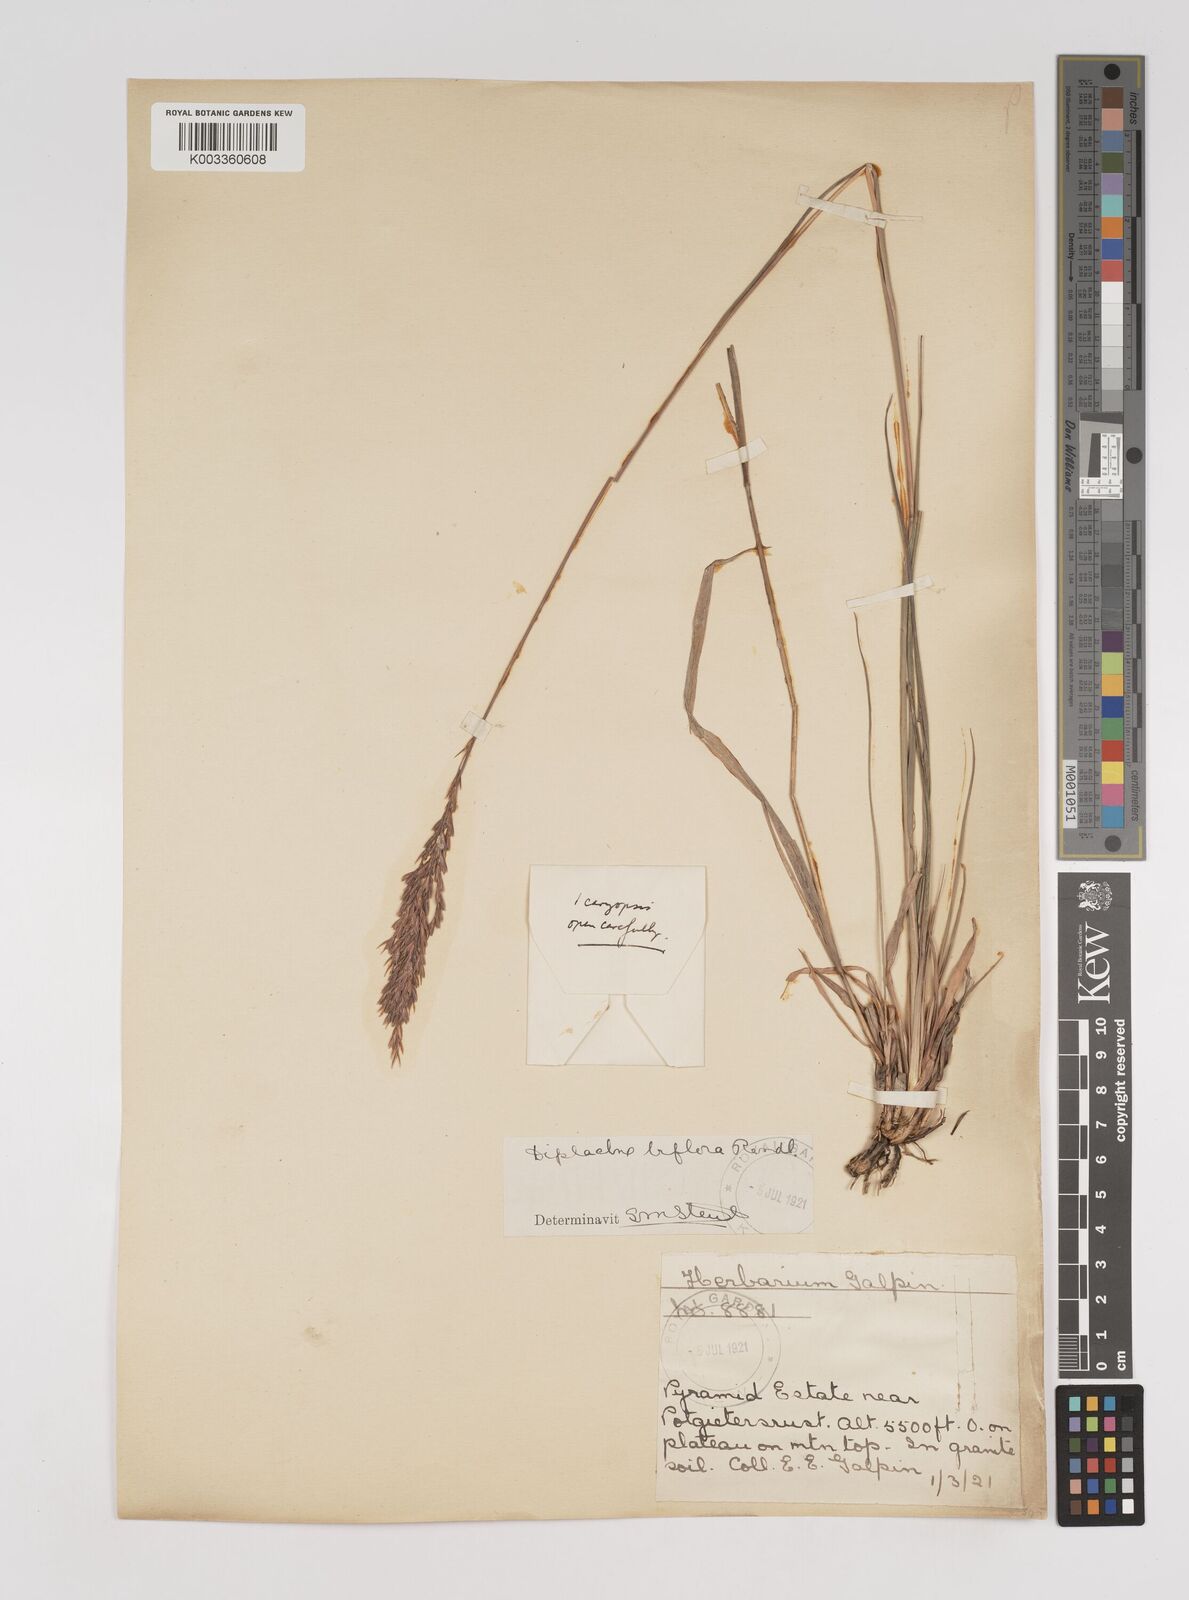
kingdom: Plantae
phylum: Tracheophyta
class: Liliopsida
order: Poales
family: Poaceae
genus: Bewsia
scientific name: Bewsia biflora
